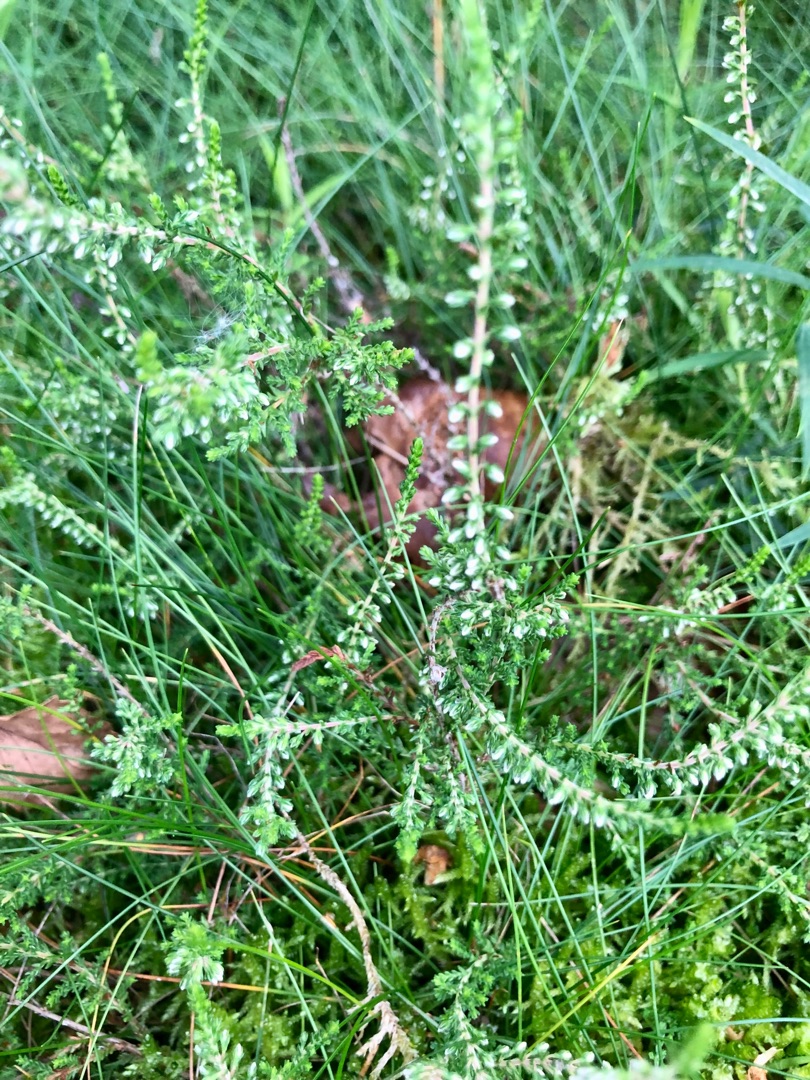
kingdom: Plantae
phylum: Tracheophyta
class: Magnoliopsida
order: Ericales
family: Ericaceae
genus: Calluna
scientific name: Calluna vulgaris
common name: Hedelyng
